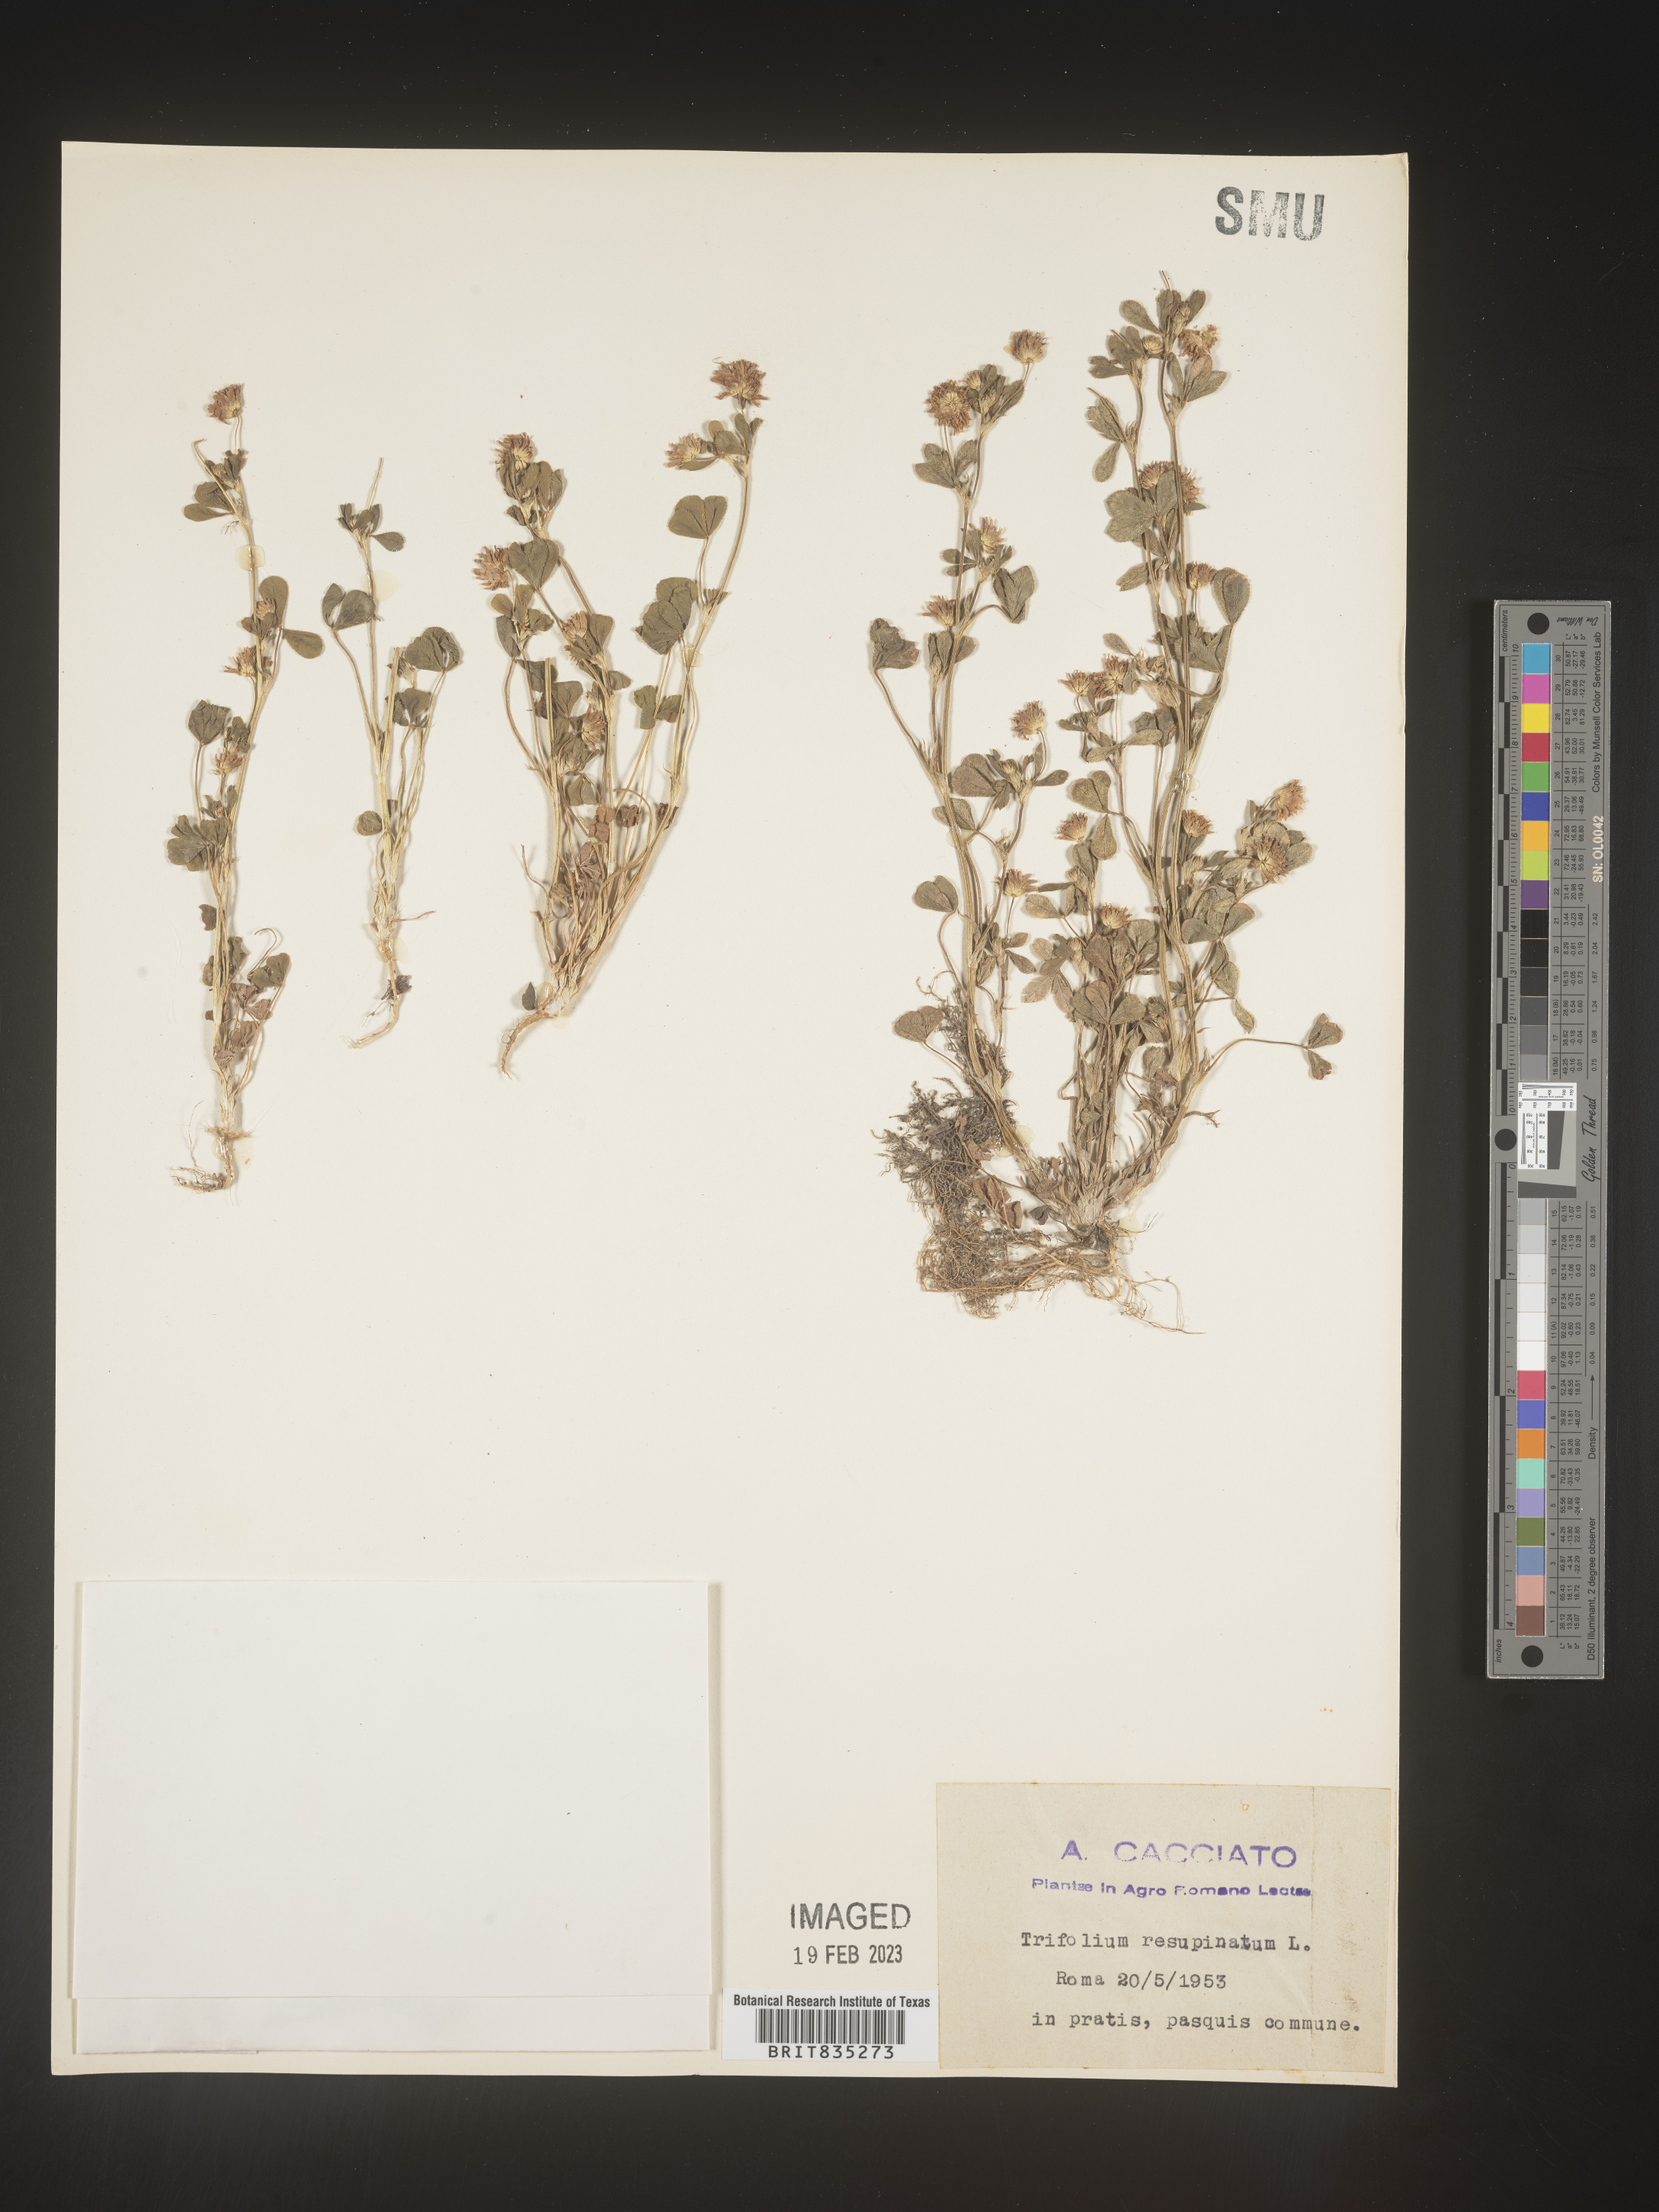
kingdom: Plantae
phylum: Tracheophyta
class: Magnoliopsida
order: Fabales
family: Fabaceae
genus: Trifolium
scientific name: Trifolium
